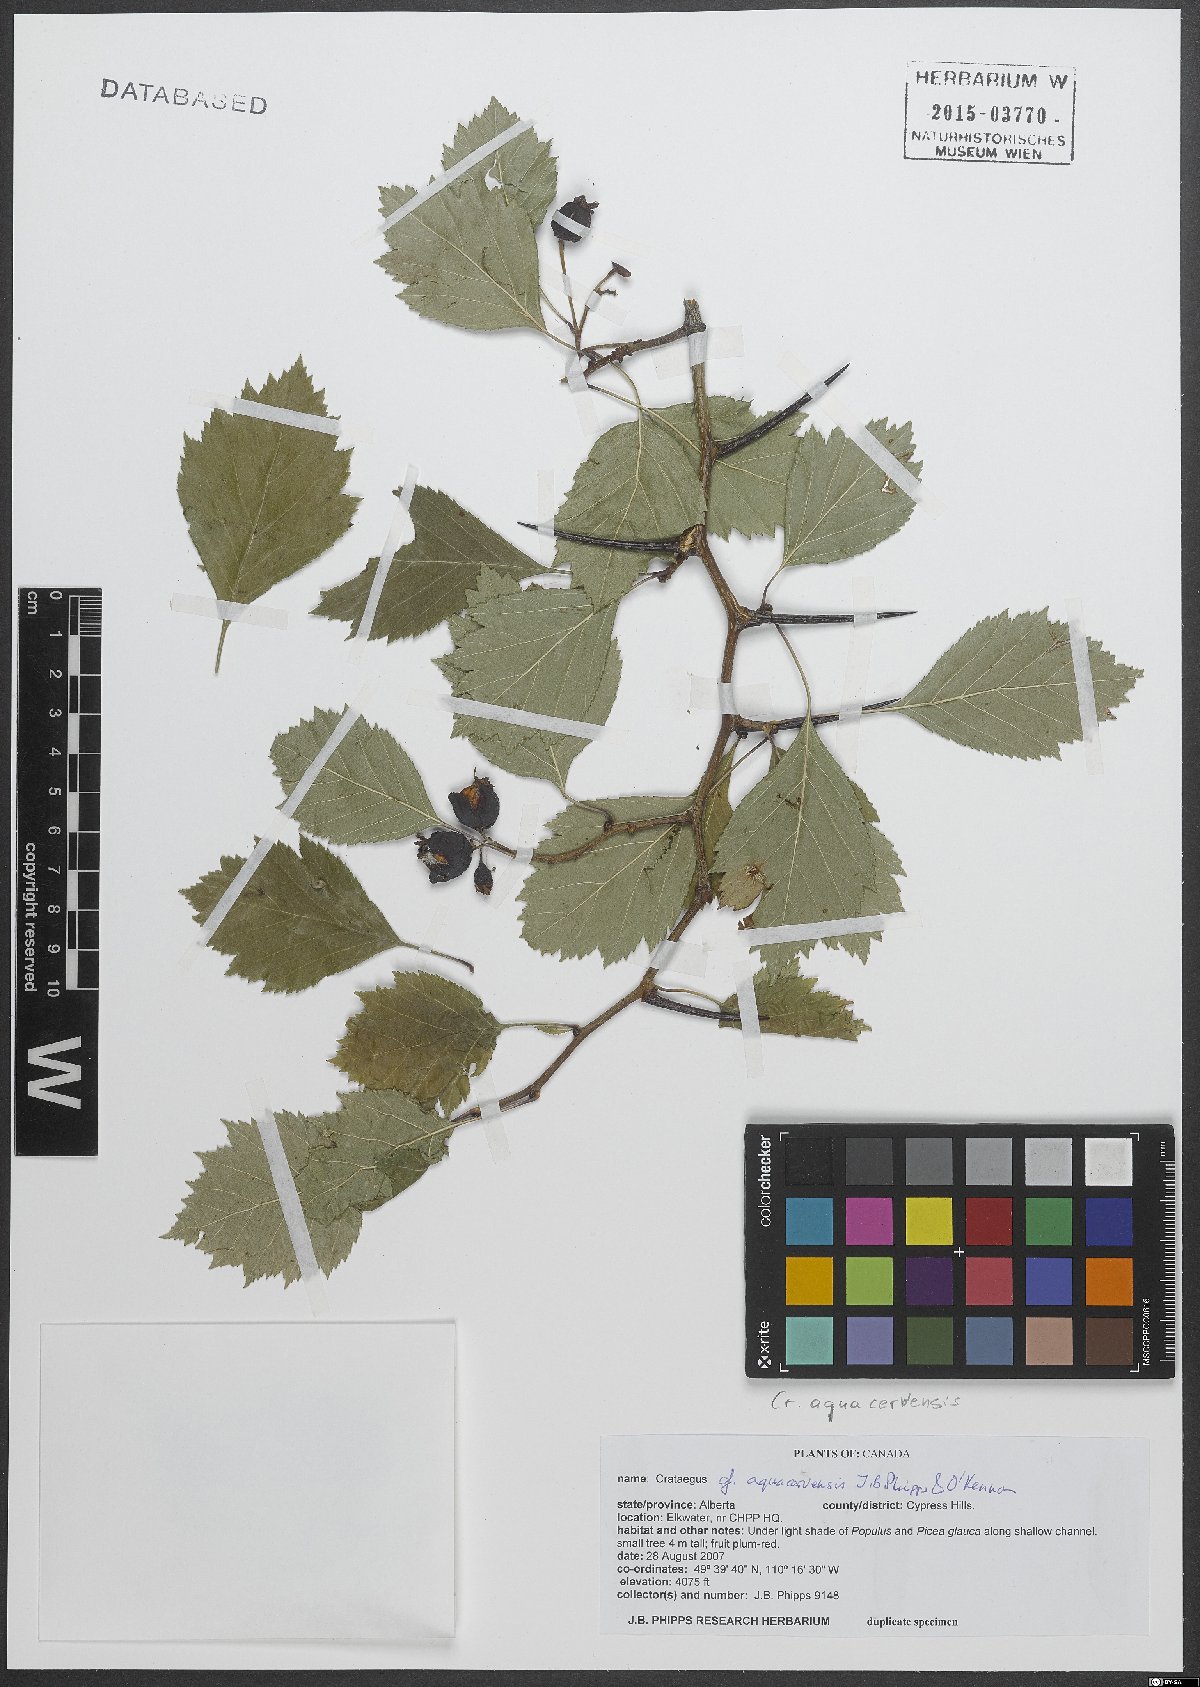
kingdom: Plantae
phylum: Tracheophyta
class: Magnoliopsida
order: Rosales
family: Rosaceae
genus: Crataegus
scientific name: Crataegus aquacervensis
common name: Elkwater hawthorn
